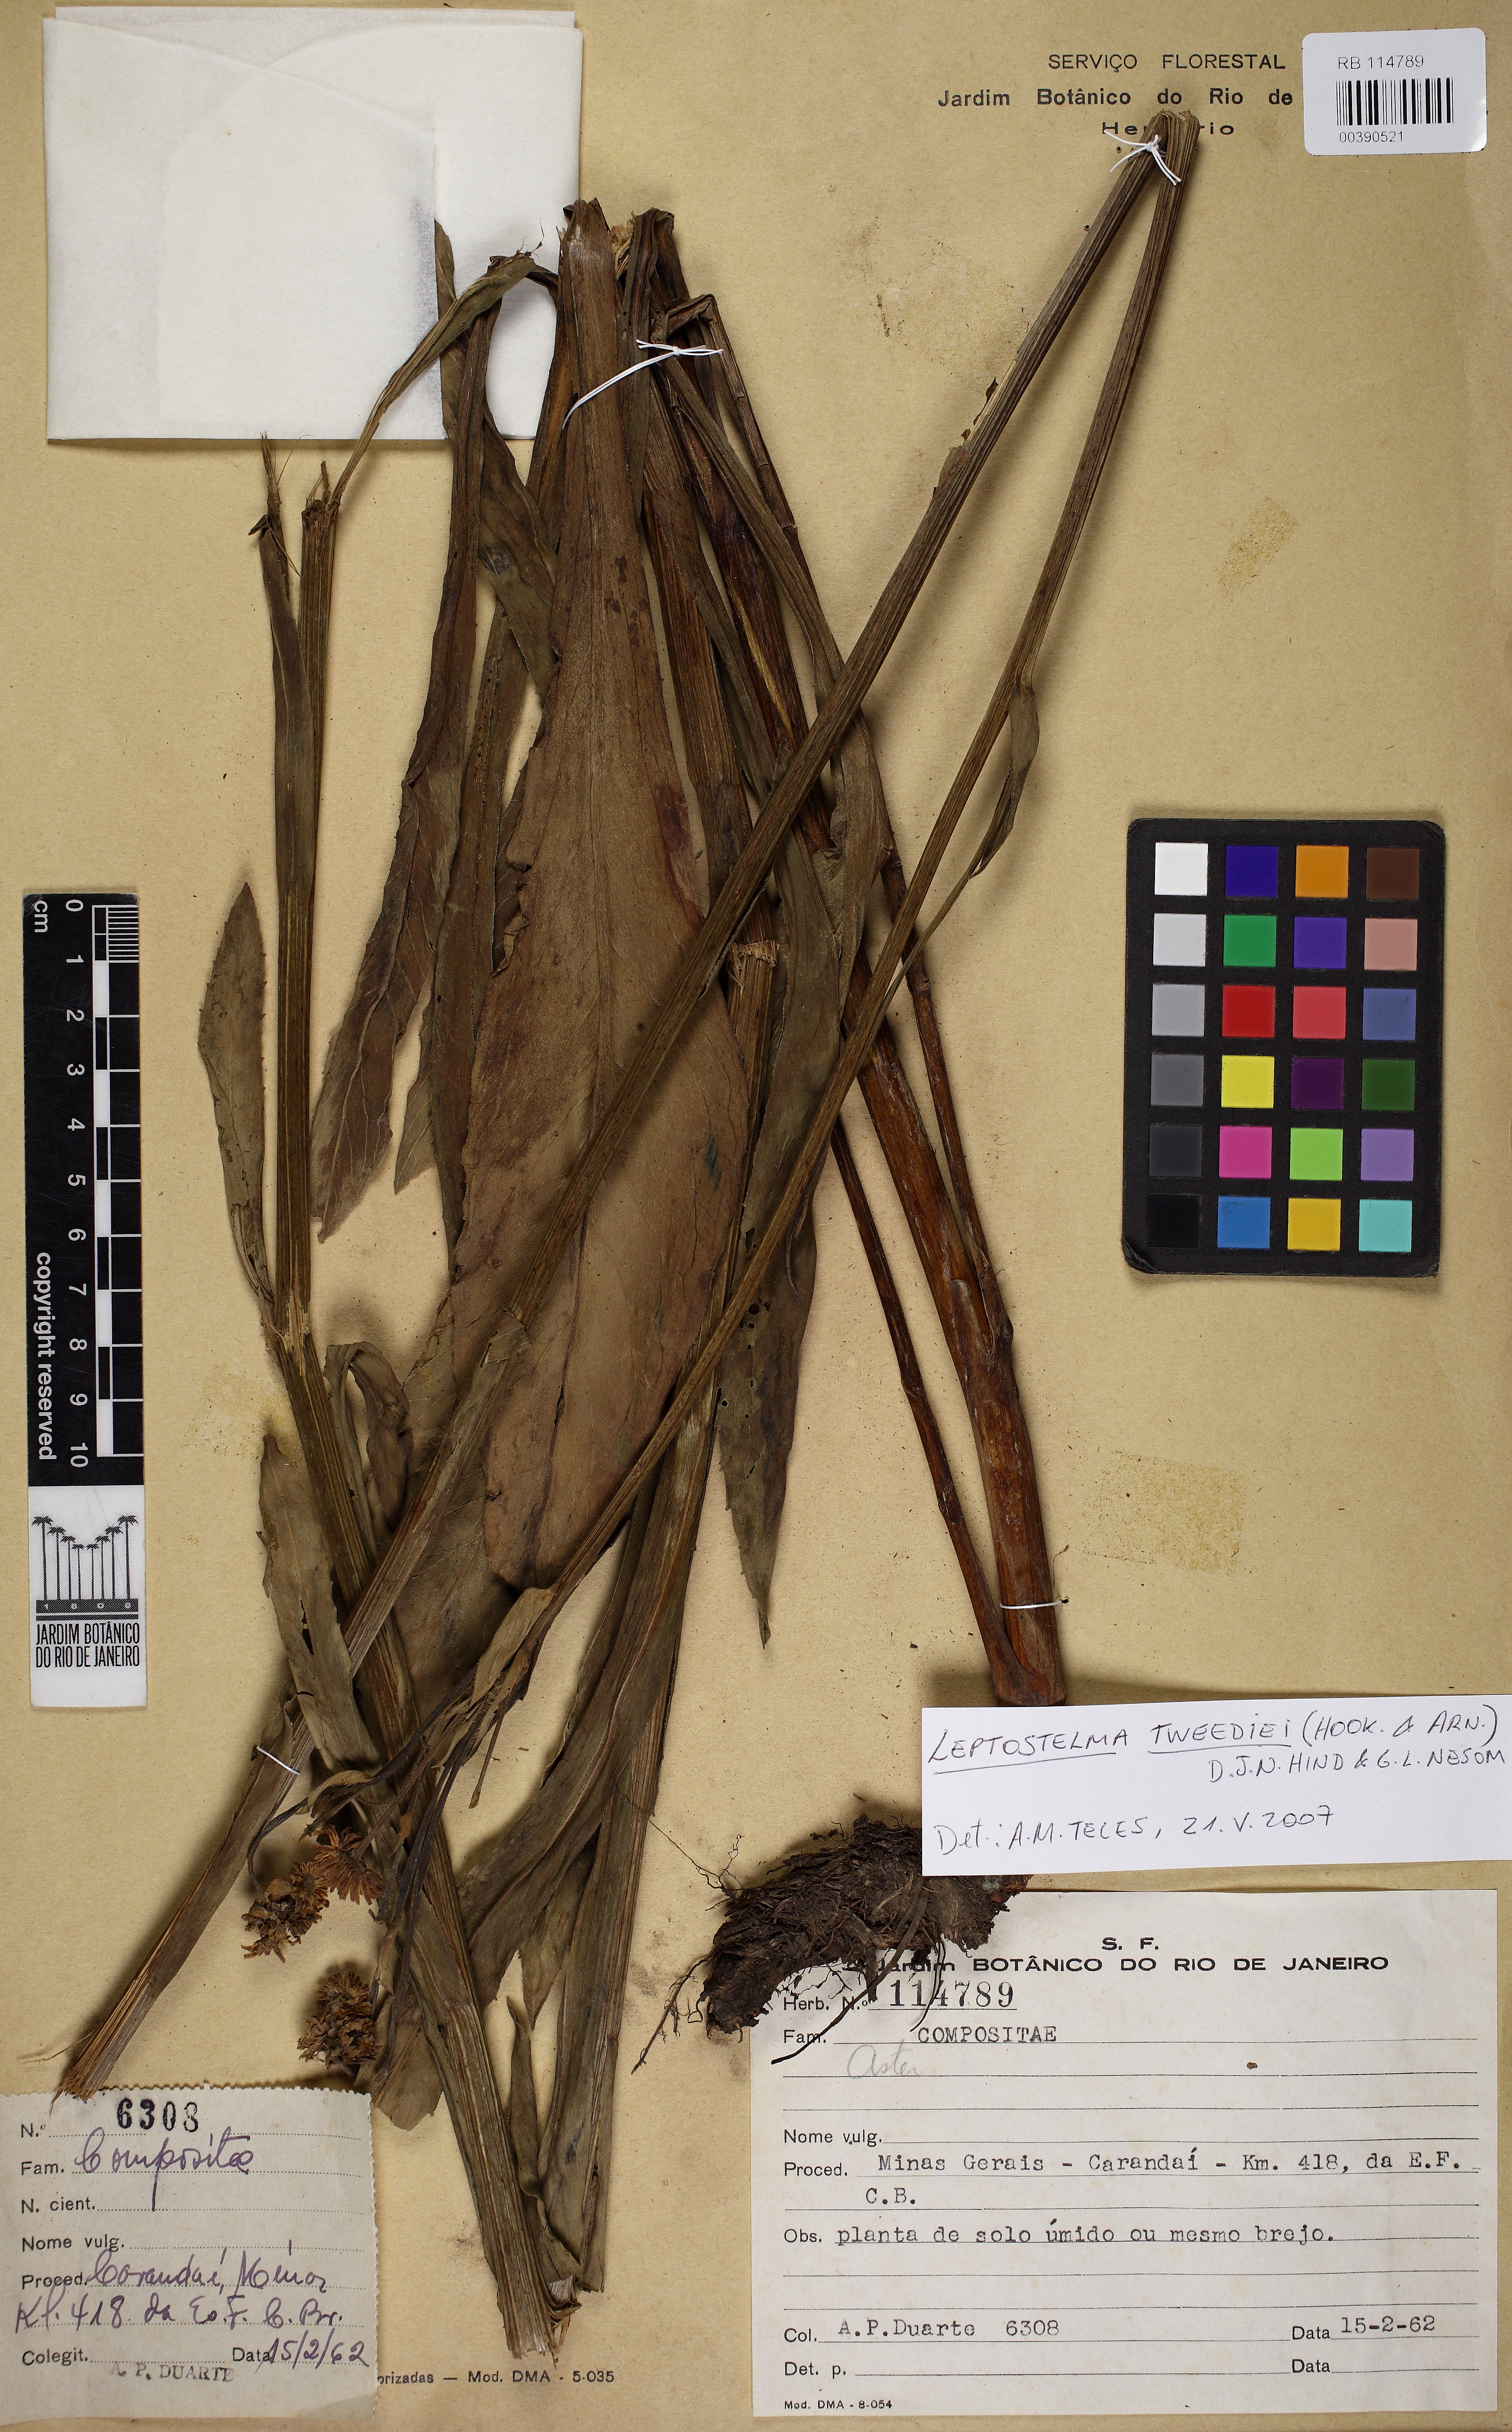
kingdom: Plantae
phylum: Tracheophyta
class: Magnoliopsida
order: Asterales
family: Asteraceae
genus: Leptostelma
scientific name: Leptostelma tweediei
